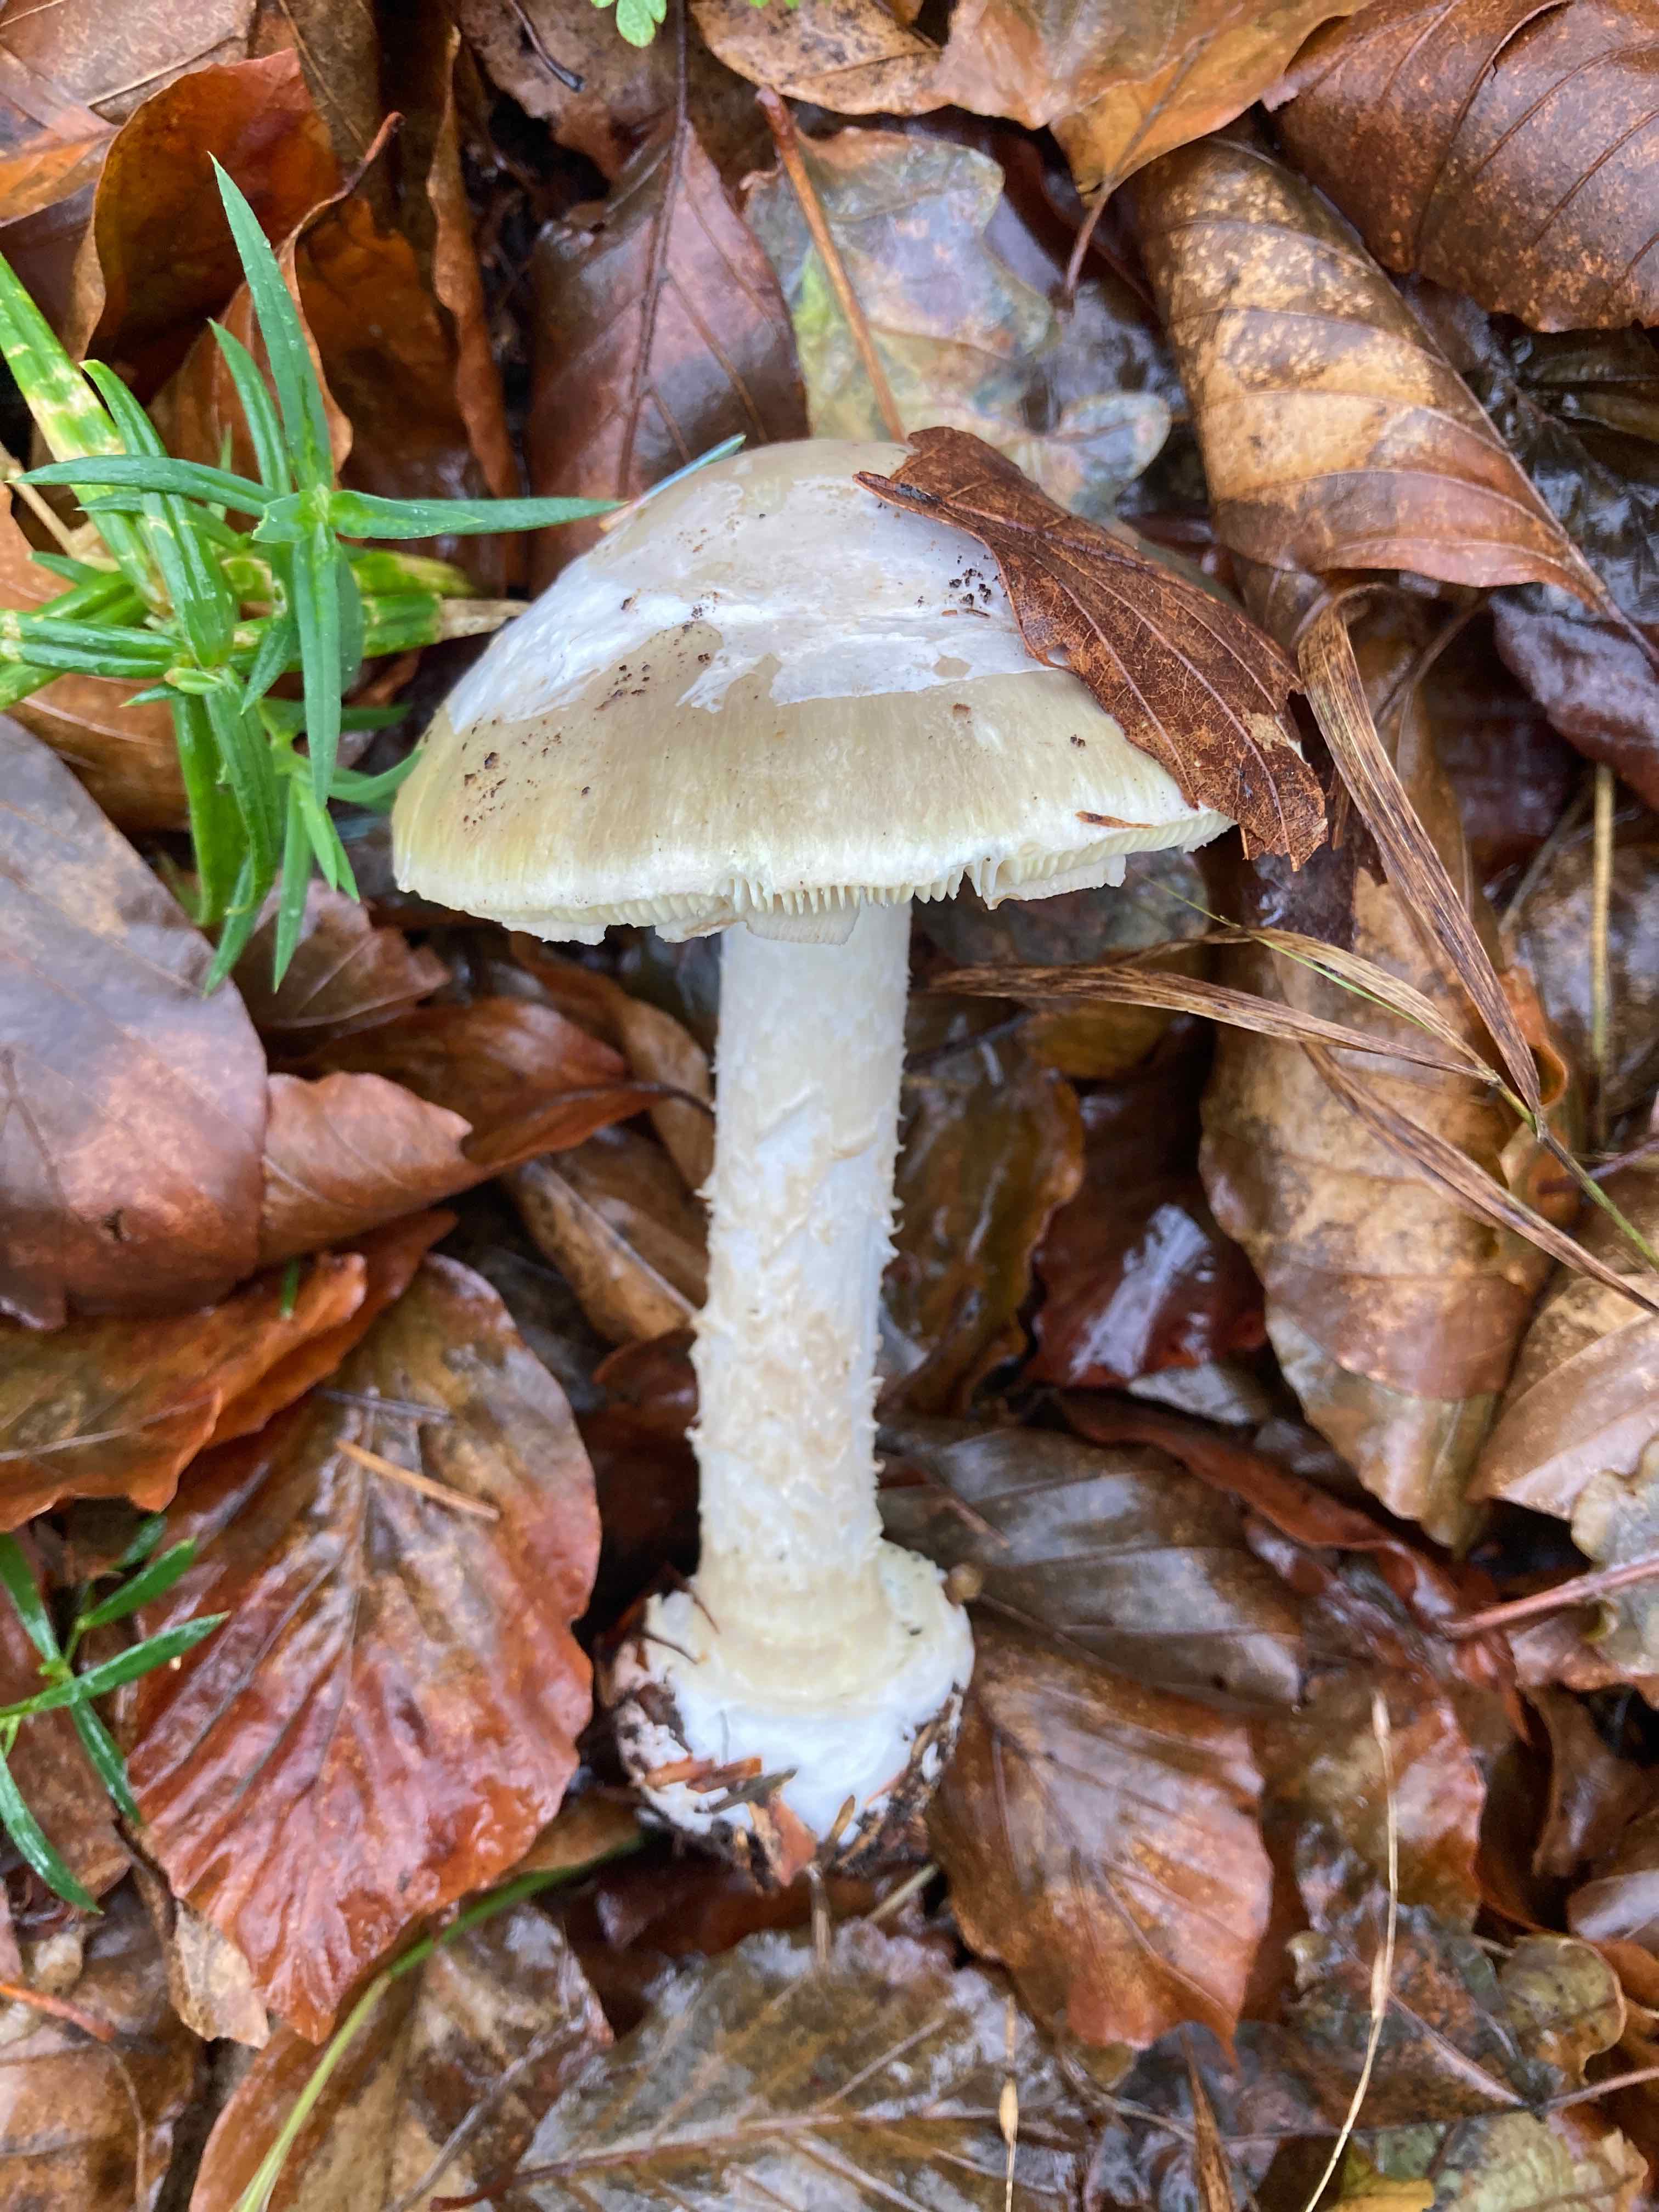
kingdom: Fungi
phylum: Basidiomycota
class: Agaricomycetes
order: Agaricales
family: Amanitaceae
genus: Amanita
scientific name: Amanita phalloides
